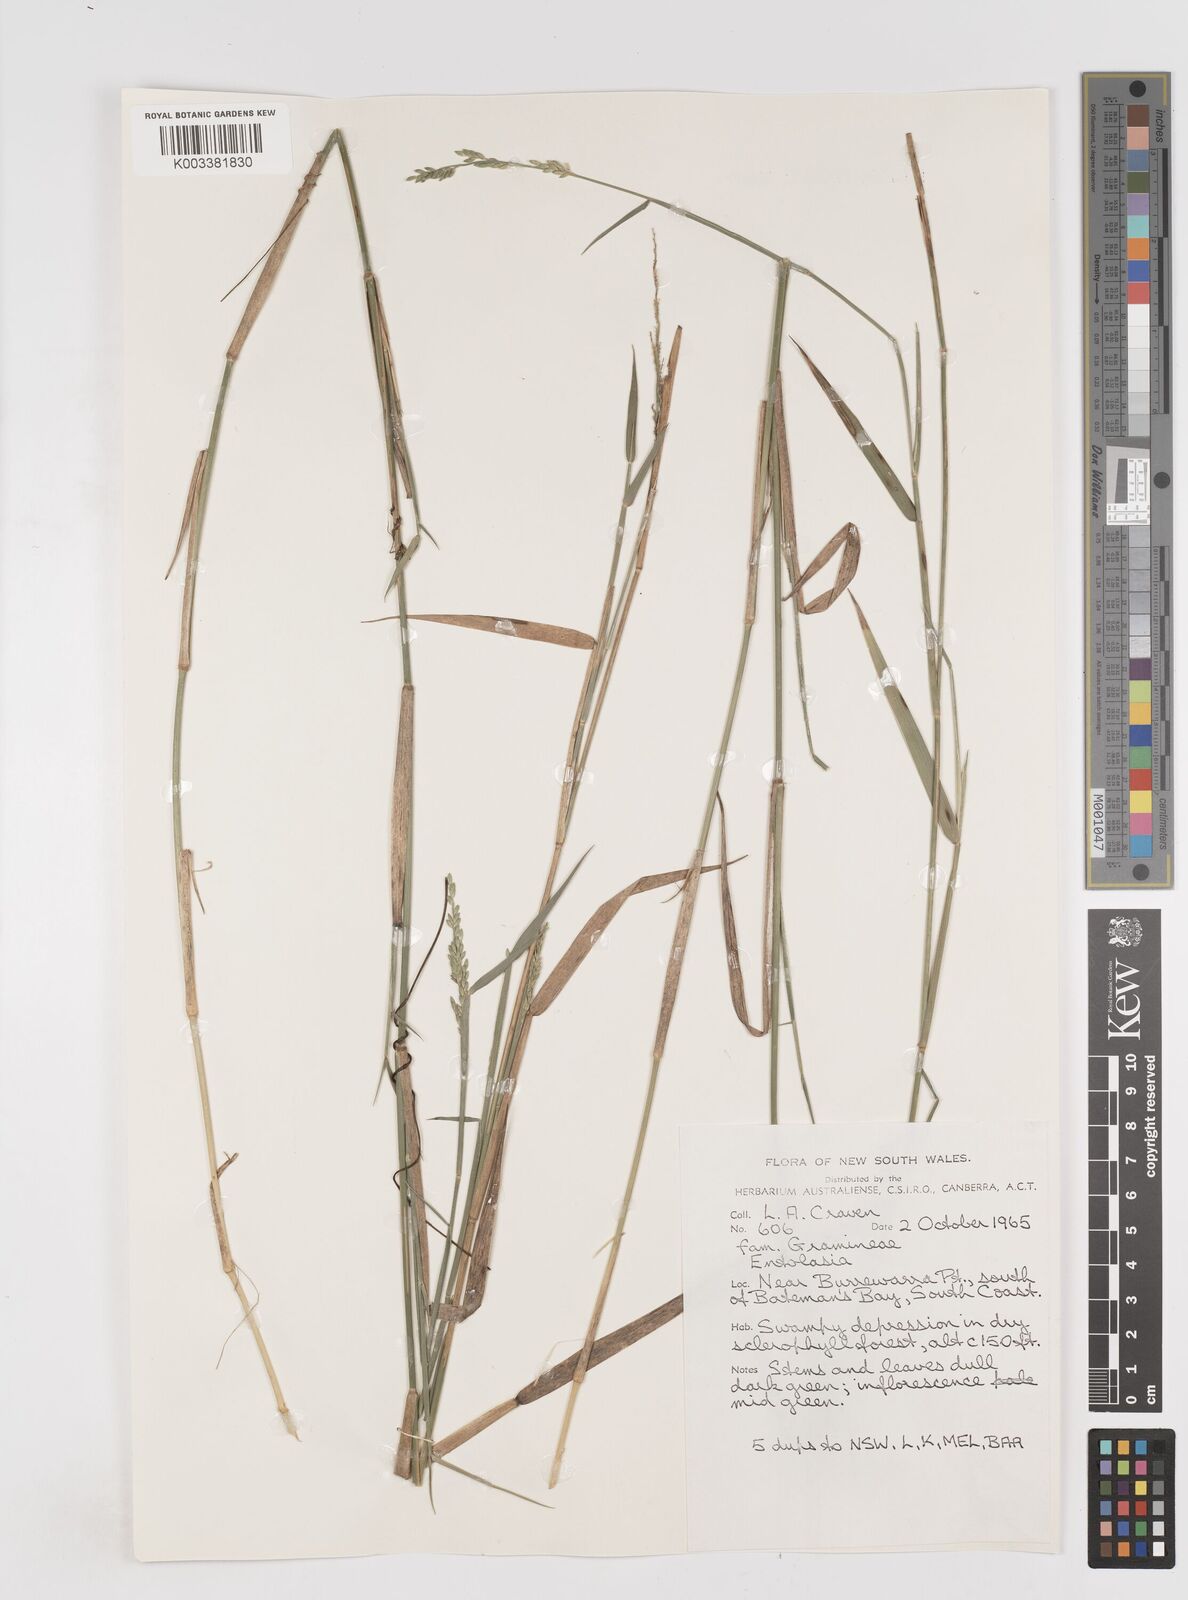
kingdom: Plantae
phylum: Tracheophyta
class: Liliopsida
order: Poales
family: Poaceae
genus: Entolasia
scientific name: Entolasia
